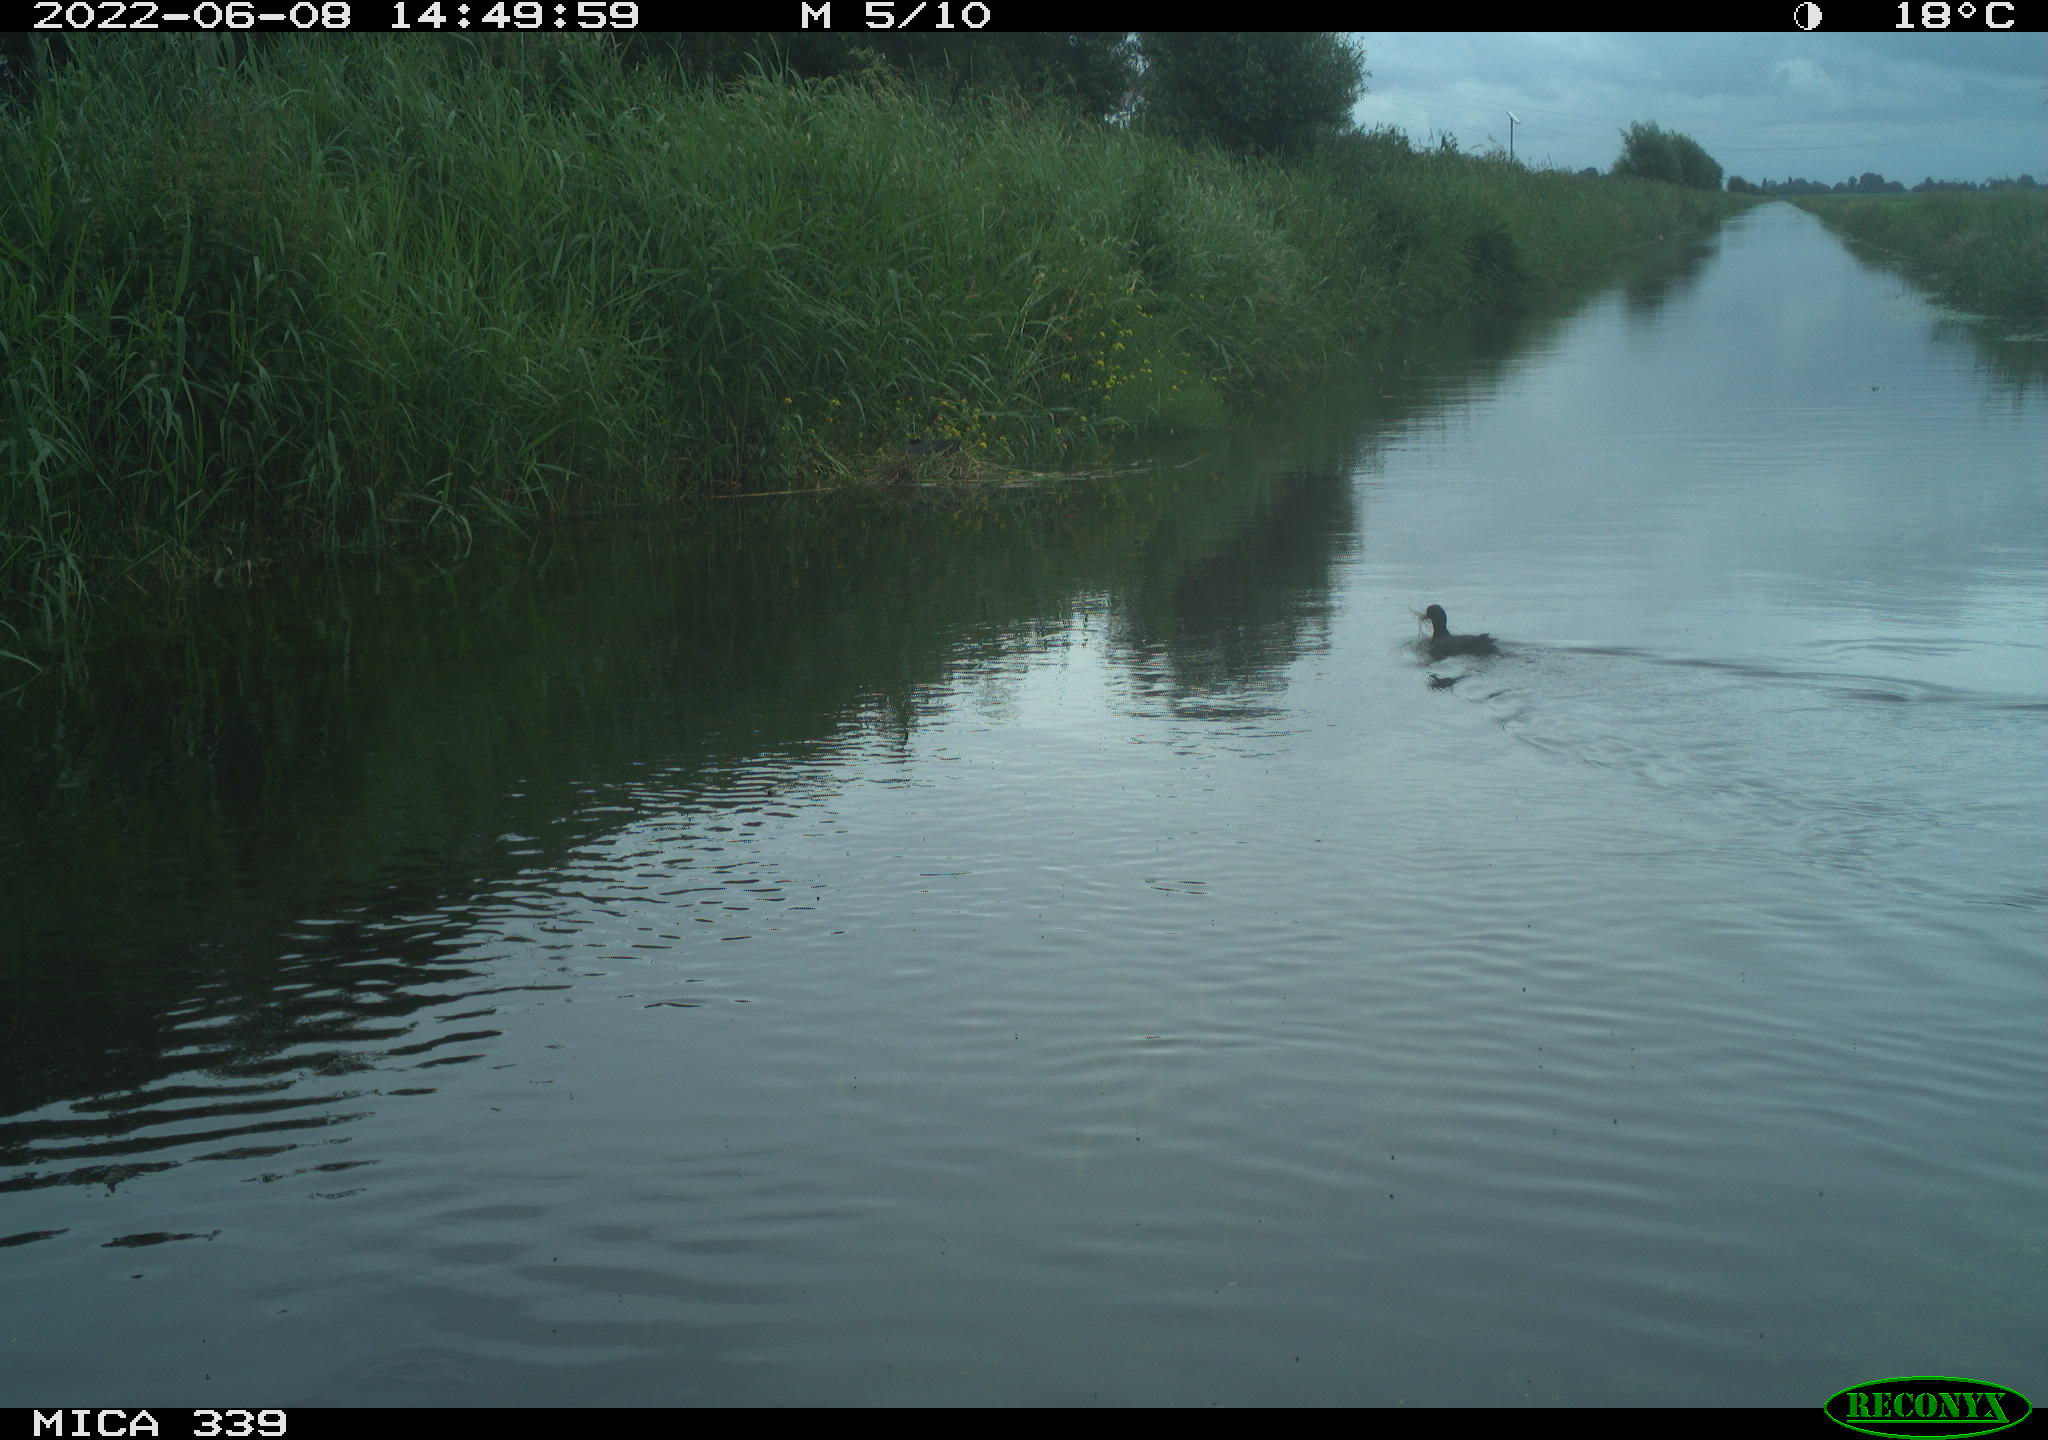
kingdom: Animalia
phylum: Chordata
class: Aves
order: Gruiformes
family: Rallidae
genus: Fulica
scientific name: Fulica atra
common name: Eurasian coot
